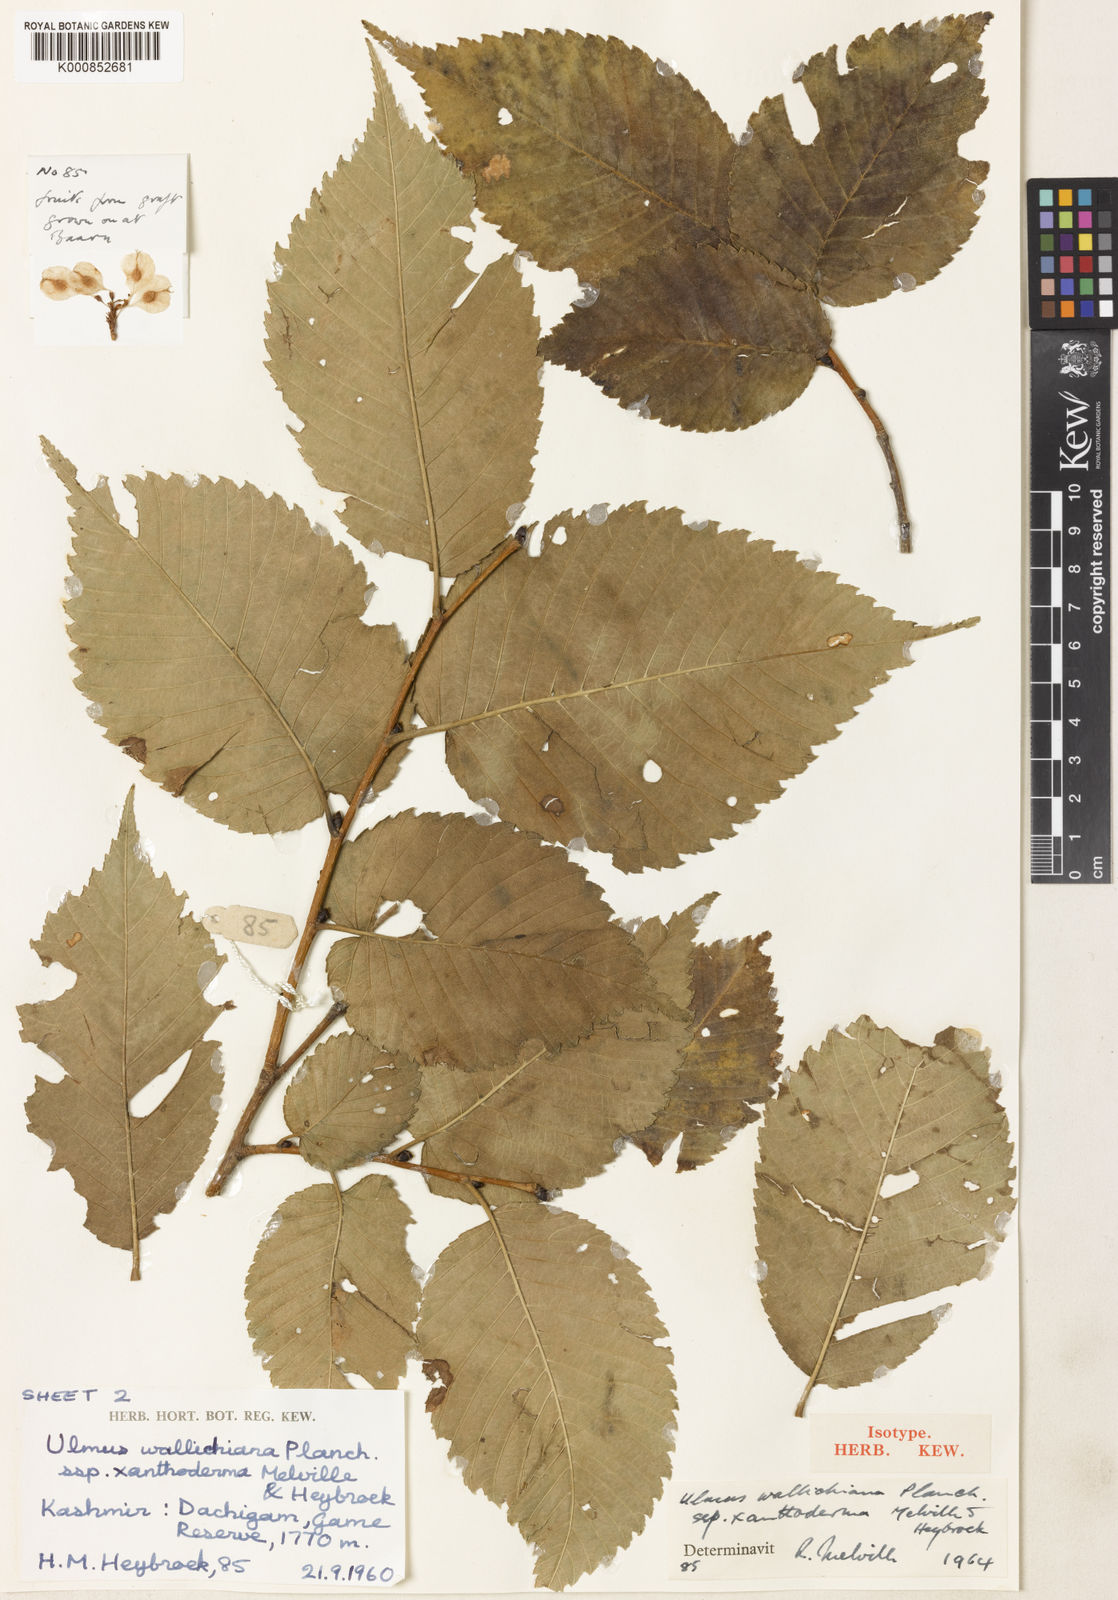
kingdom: Plantae
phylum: Tracheophyta
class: Magnoliopsida
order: Rosales
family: Ulmaceae
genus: Ulmus
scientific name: Ulmus wallichiana
